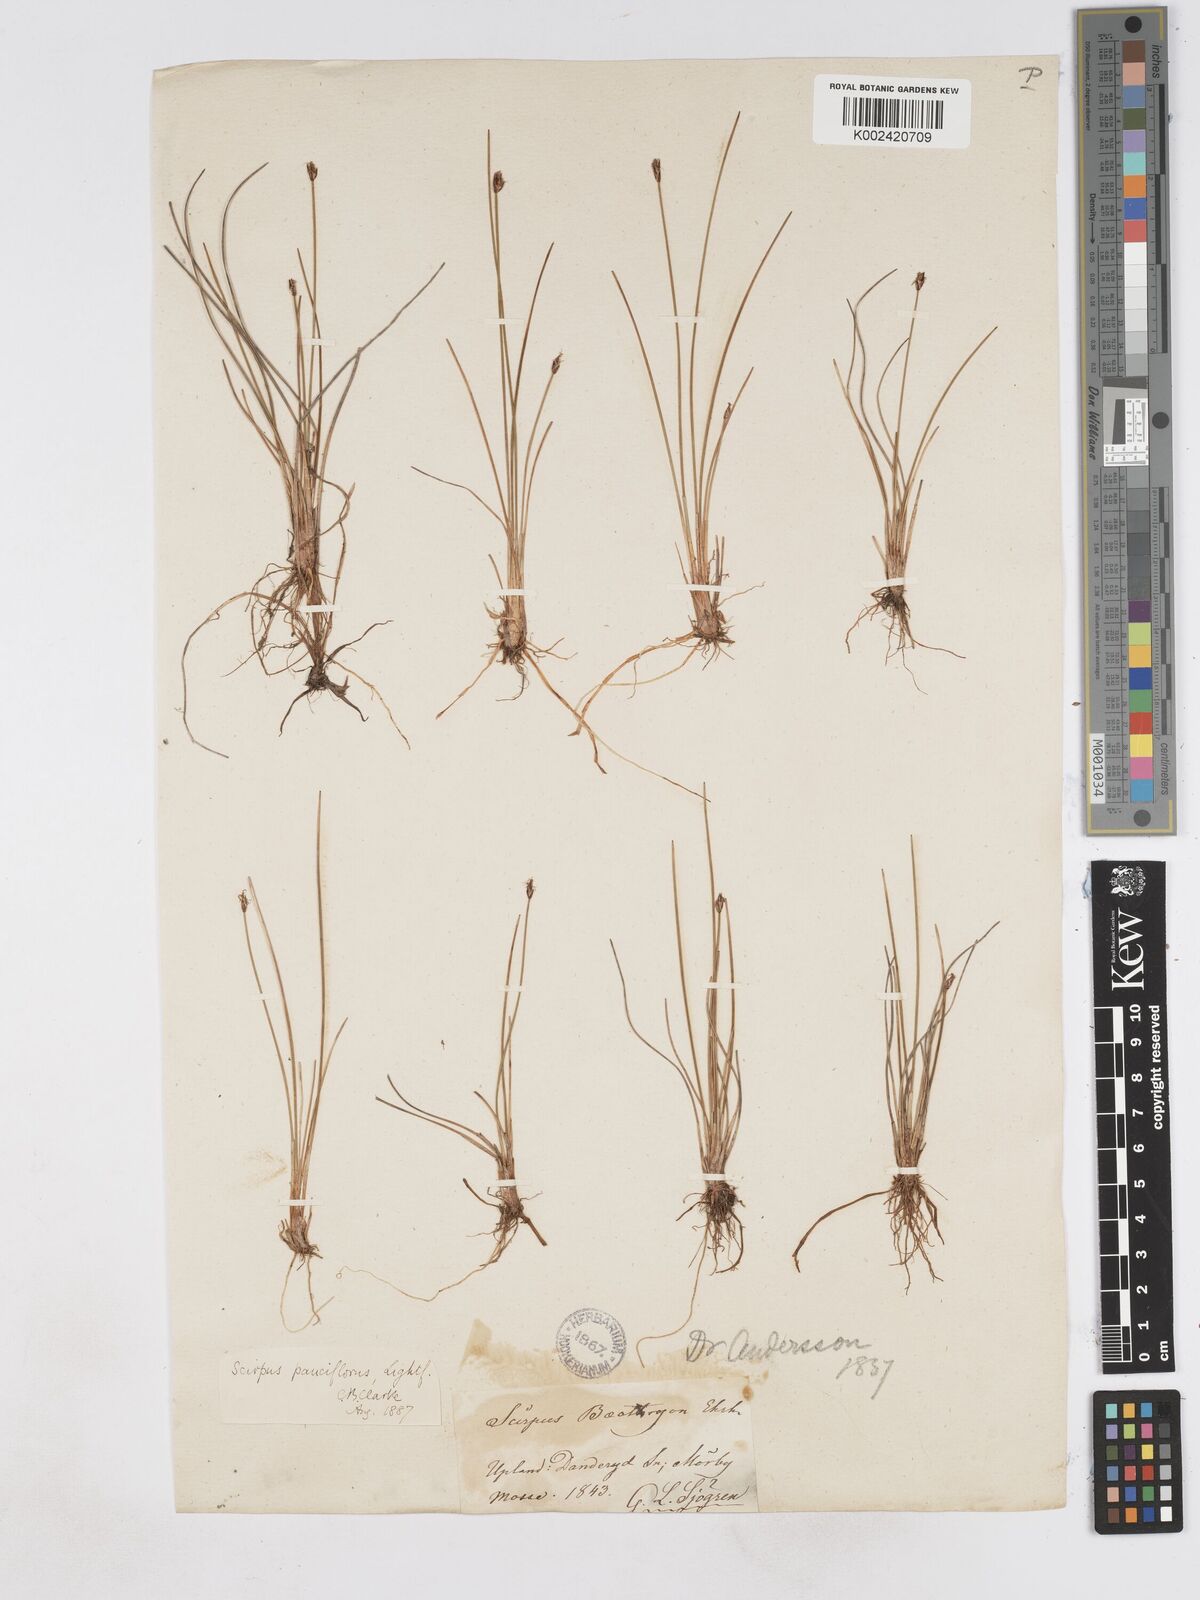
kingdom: Plantae
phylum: Tracheophyta
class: Liliopsida
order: Poales
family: Cyperaceae
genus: Eleocharis
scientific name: Eleocharis quinqueflora
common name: Few-flowered spike-rush
